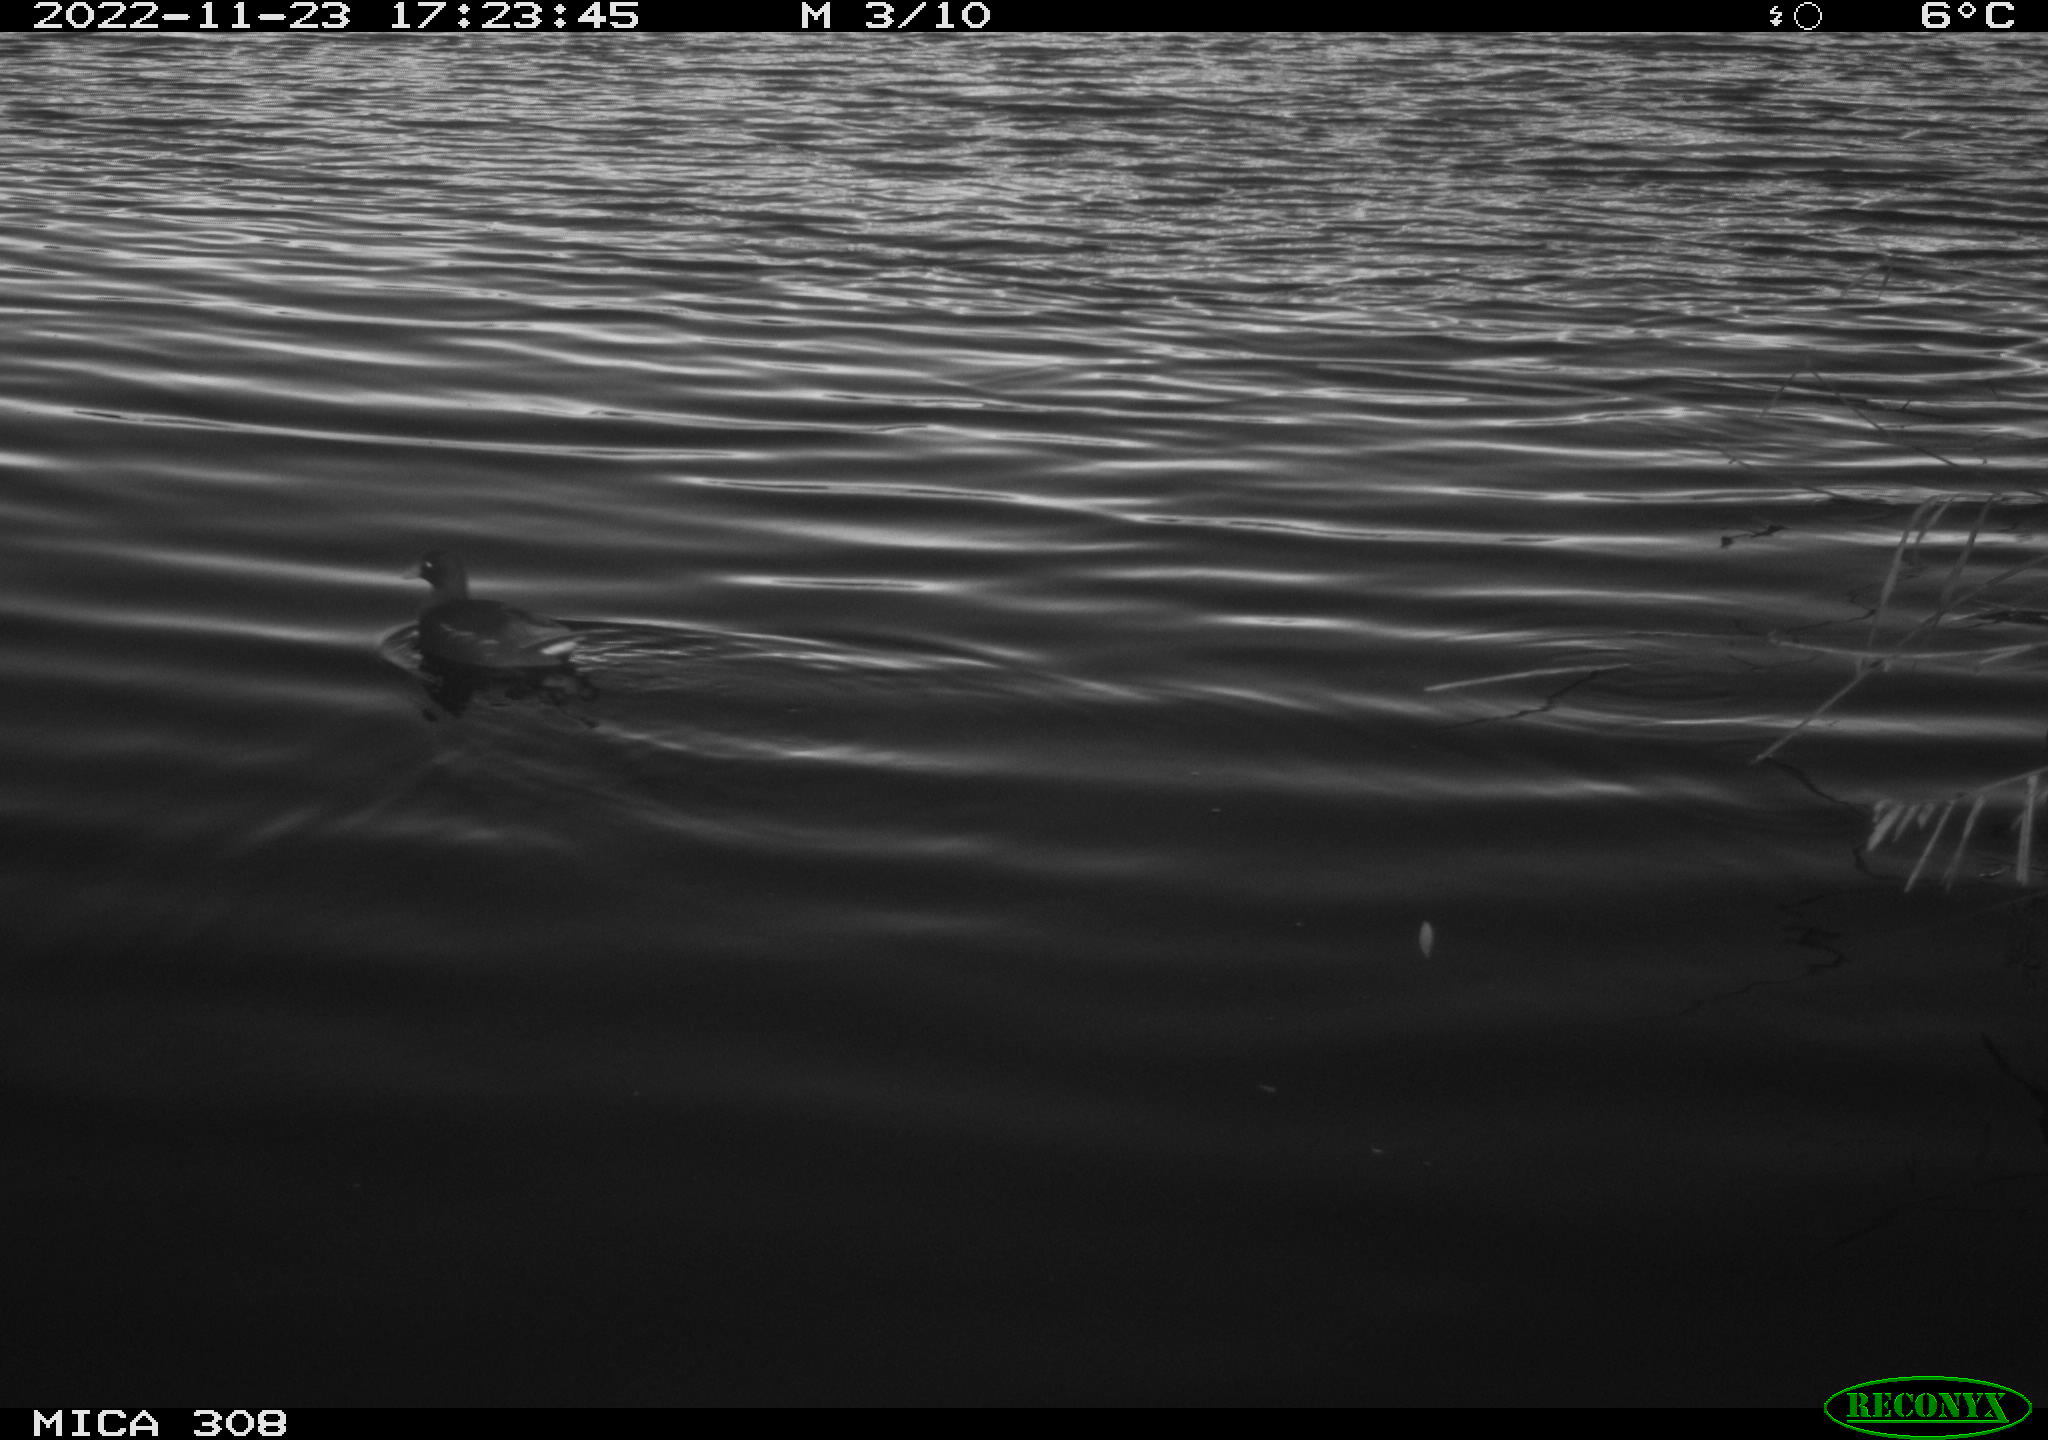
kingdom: Animalia
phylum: Chordata
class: Aves
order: Gruiformes
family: Rallidae
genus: Gallinula
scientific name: Gallinula chloropus
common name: Common moorhen
